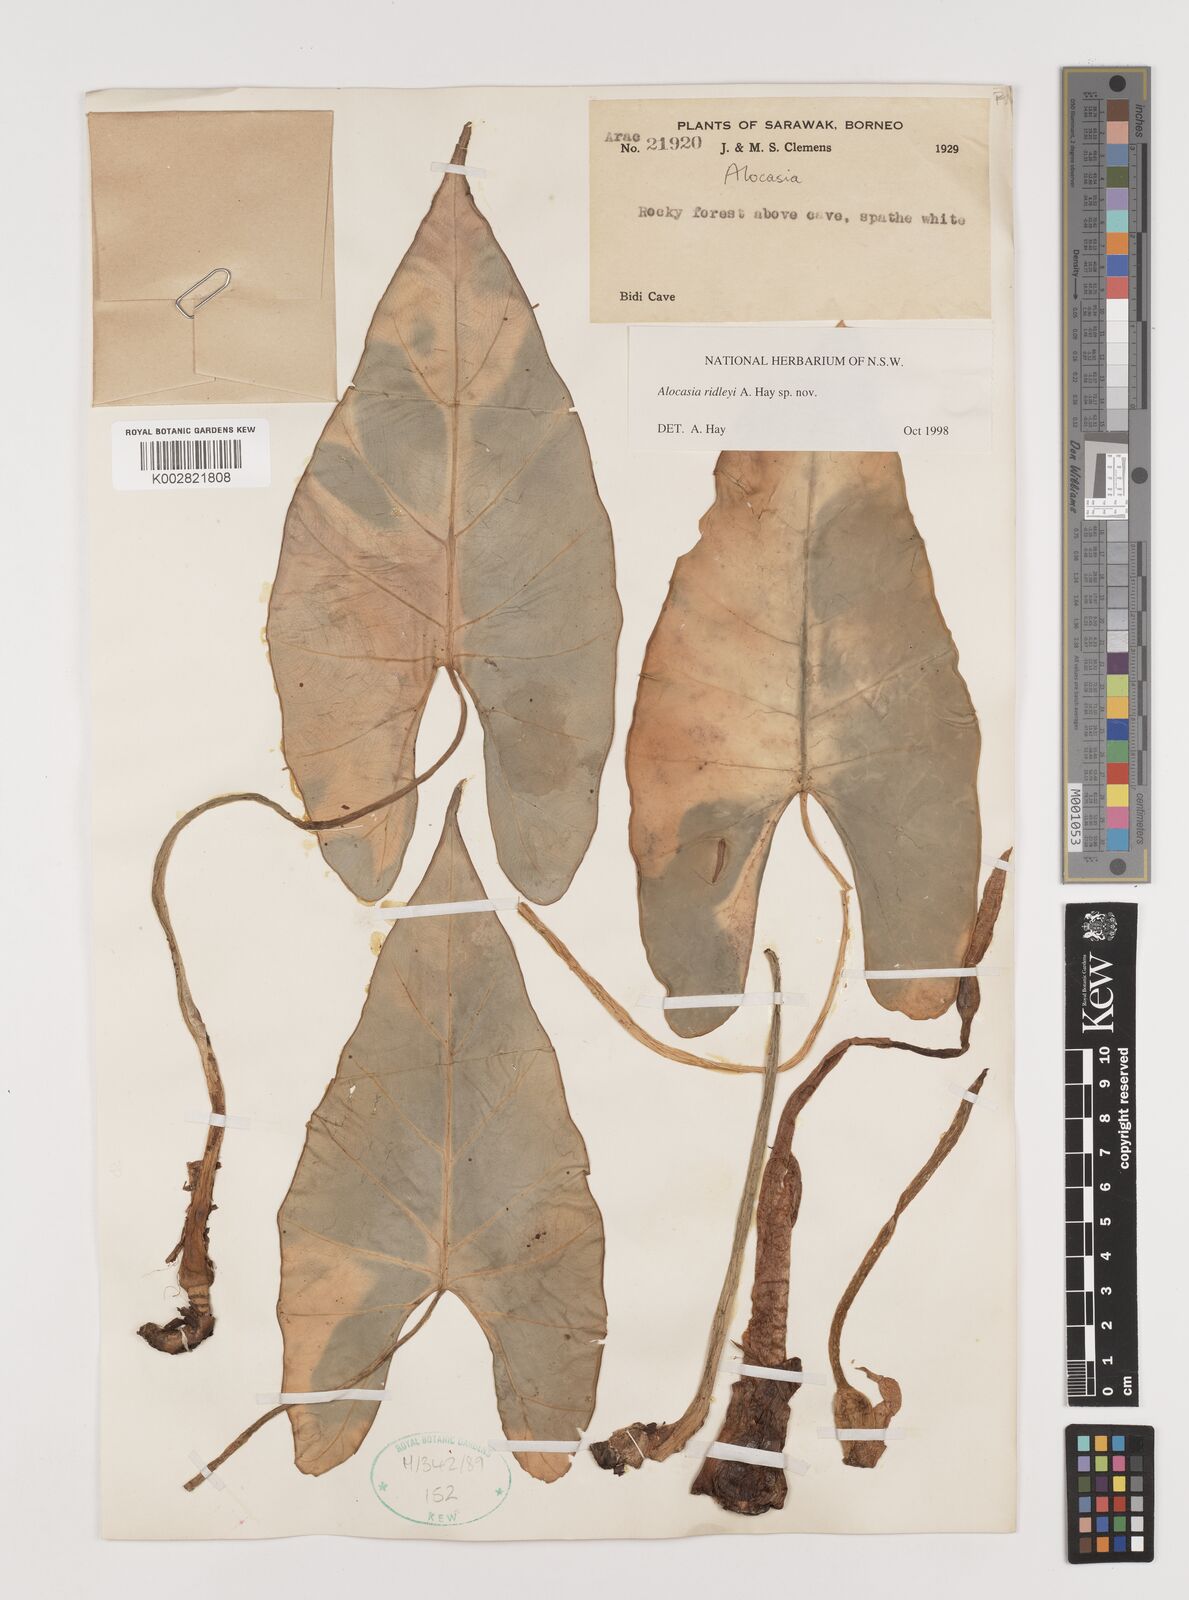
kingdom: Plantae
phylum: Tracheophyta
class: Liliopsida
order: Alismatales
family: Araceae
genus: Alocasia
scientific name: Alocasia ridleyi
